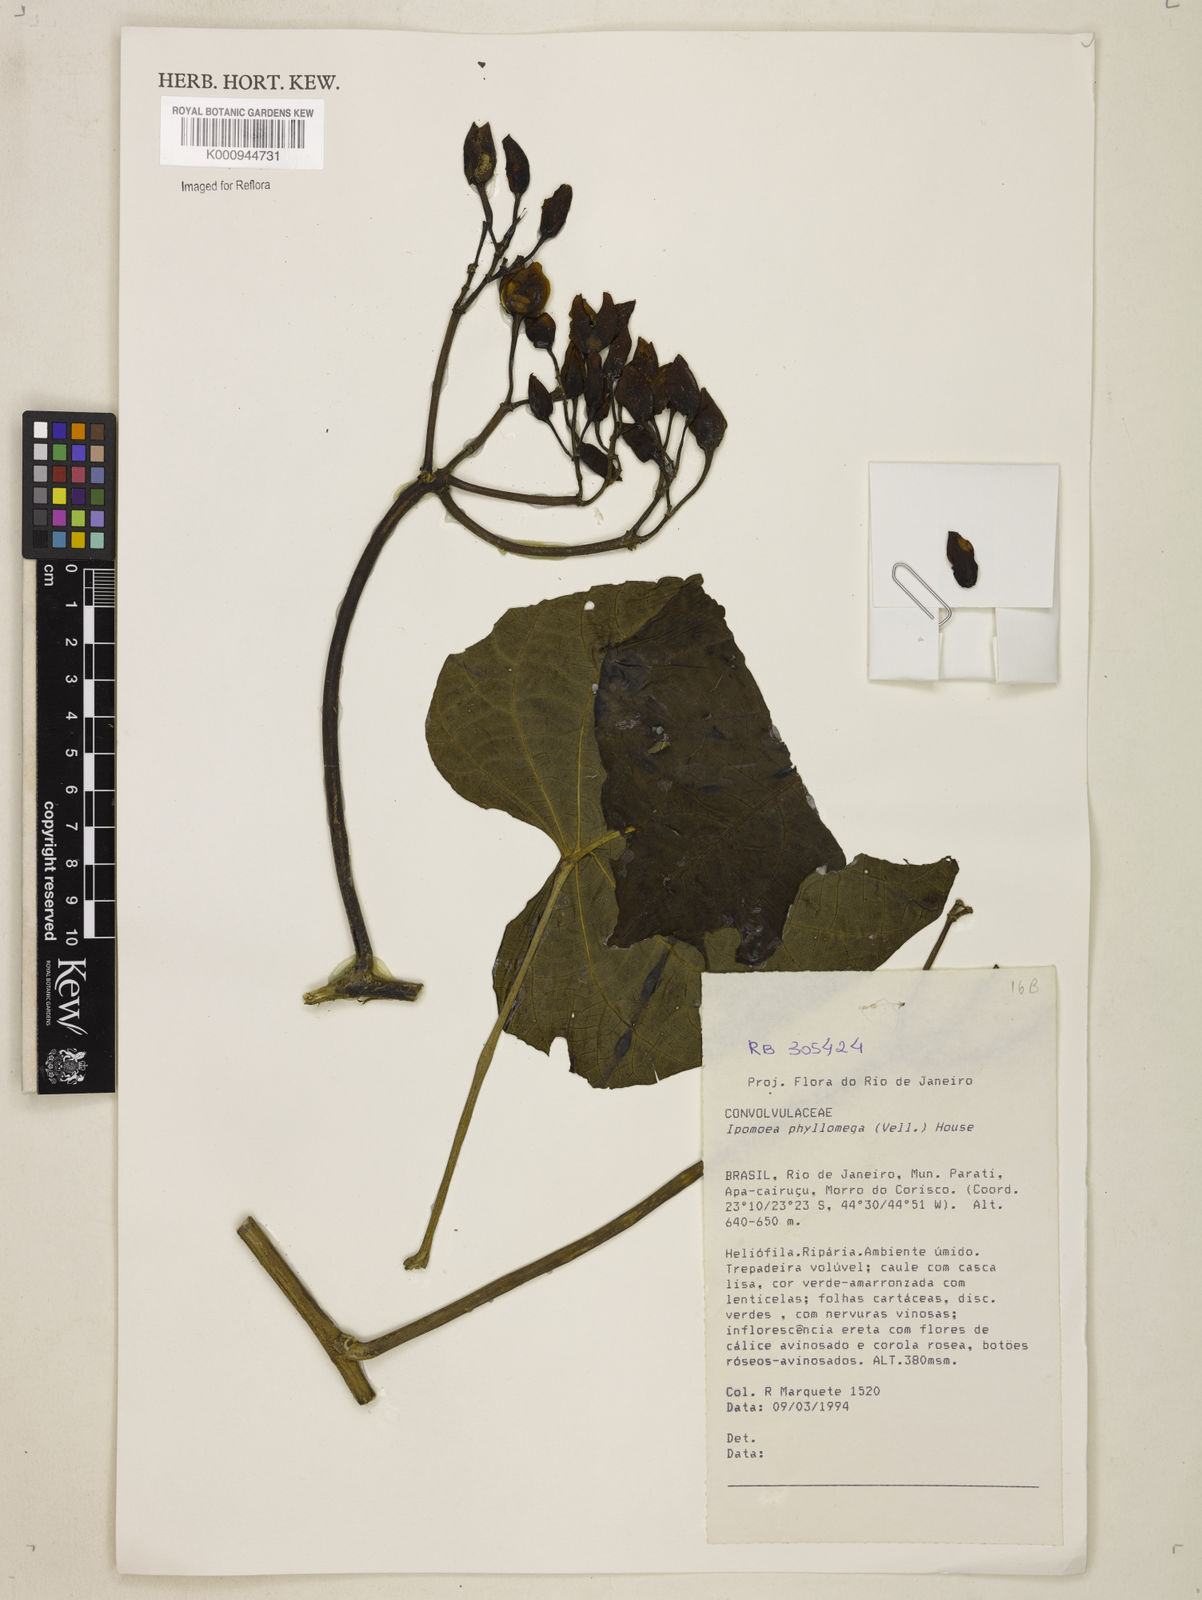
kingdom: Plantae
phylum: Tracheophyta
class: Magnoliopsida
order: Solanales
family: Convolvulaceae
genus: Ipomoea
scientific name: Ipomoea philomega
